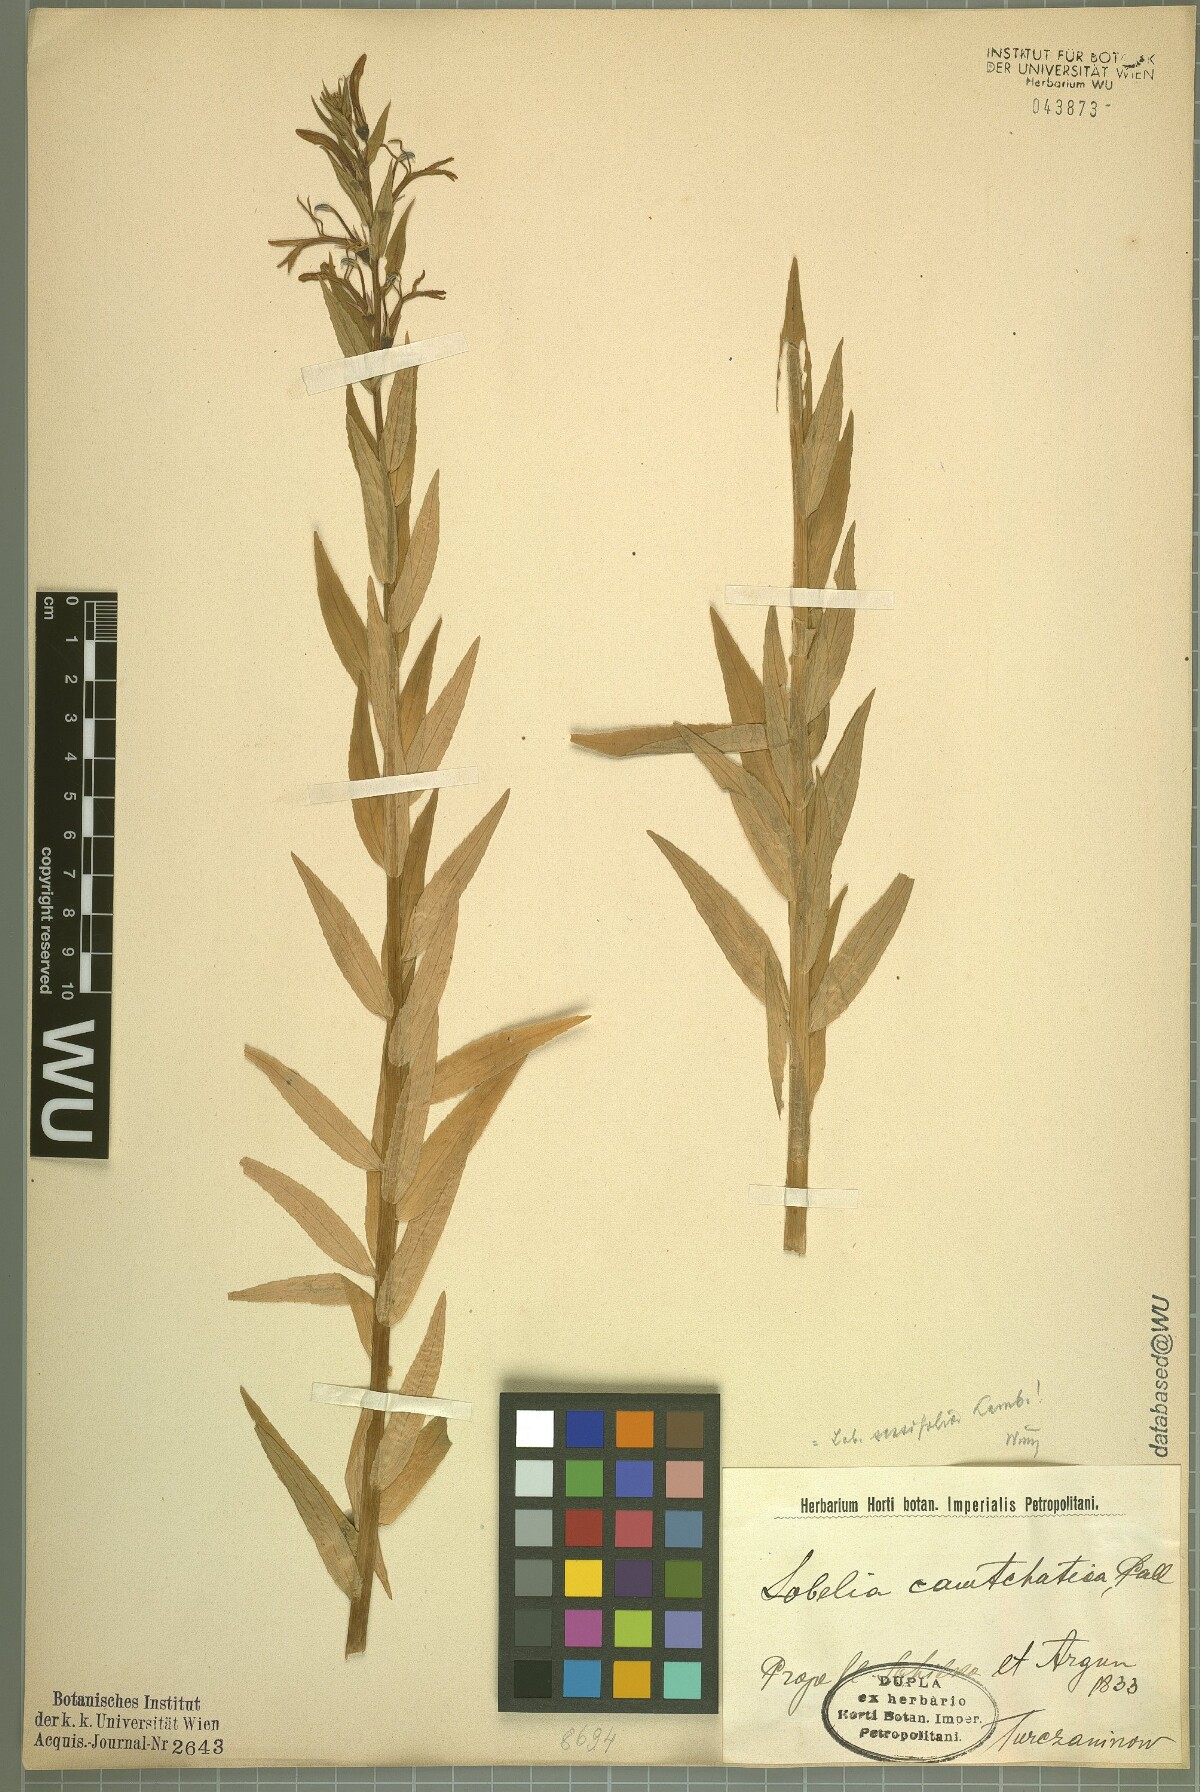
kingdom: Plantae
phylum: Tracheophyta
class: Magnoliopsida
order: Asterales
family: Campanulaceae
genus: Lobelia
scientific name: Lobelia sessilifolia
